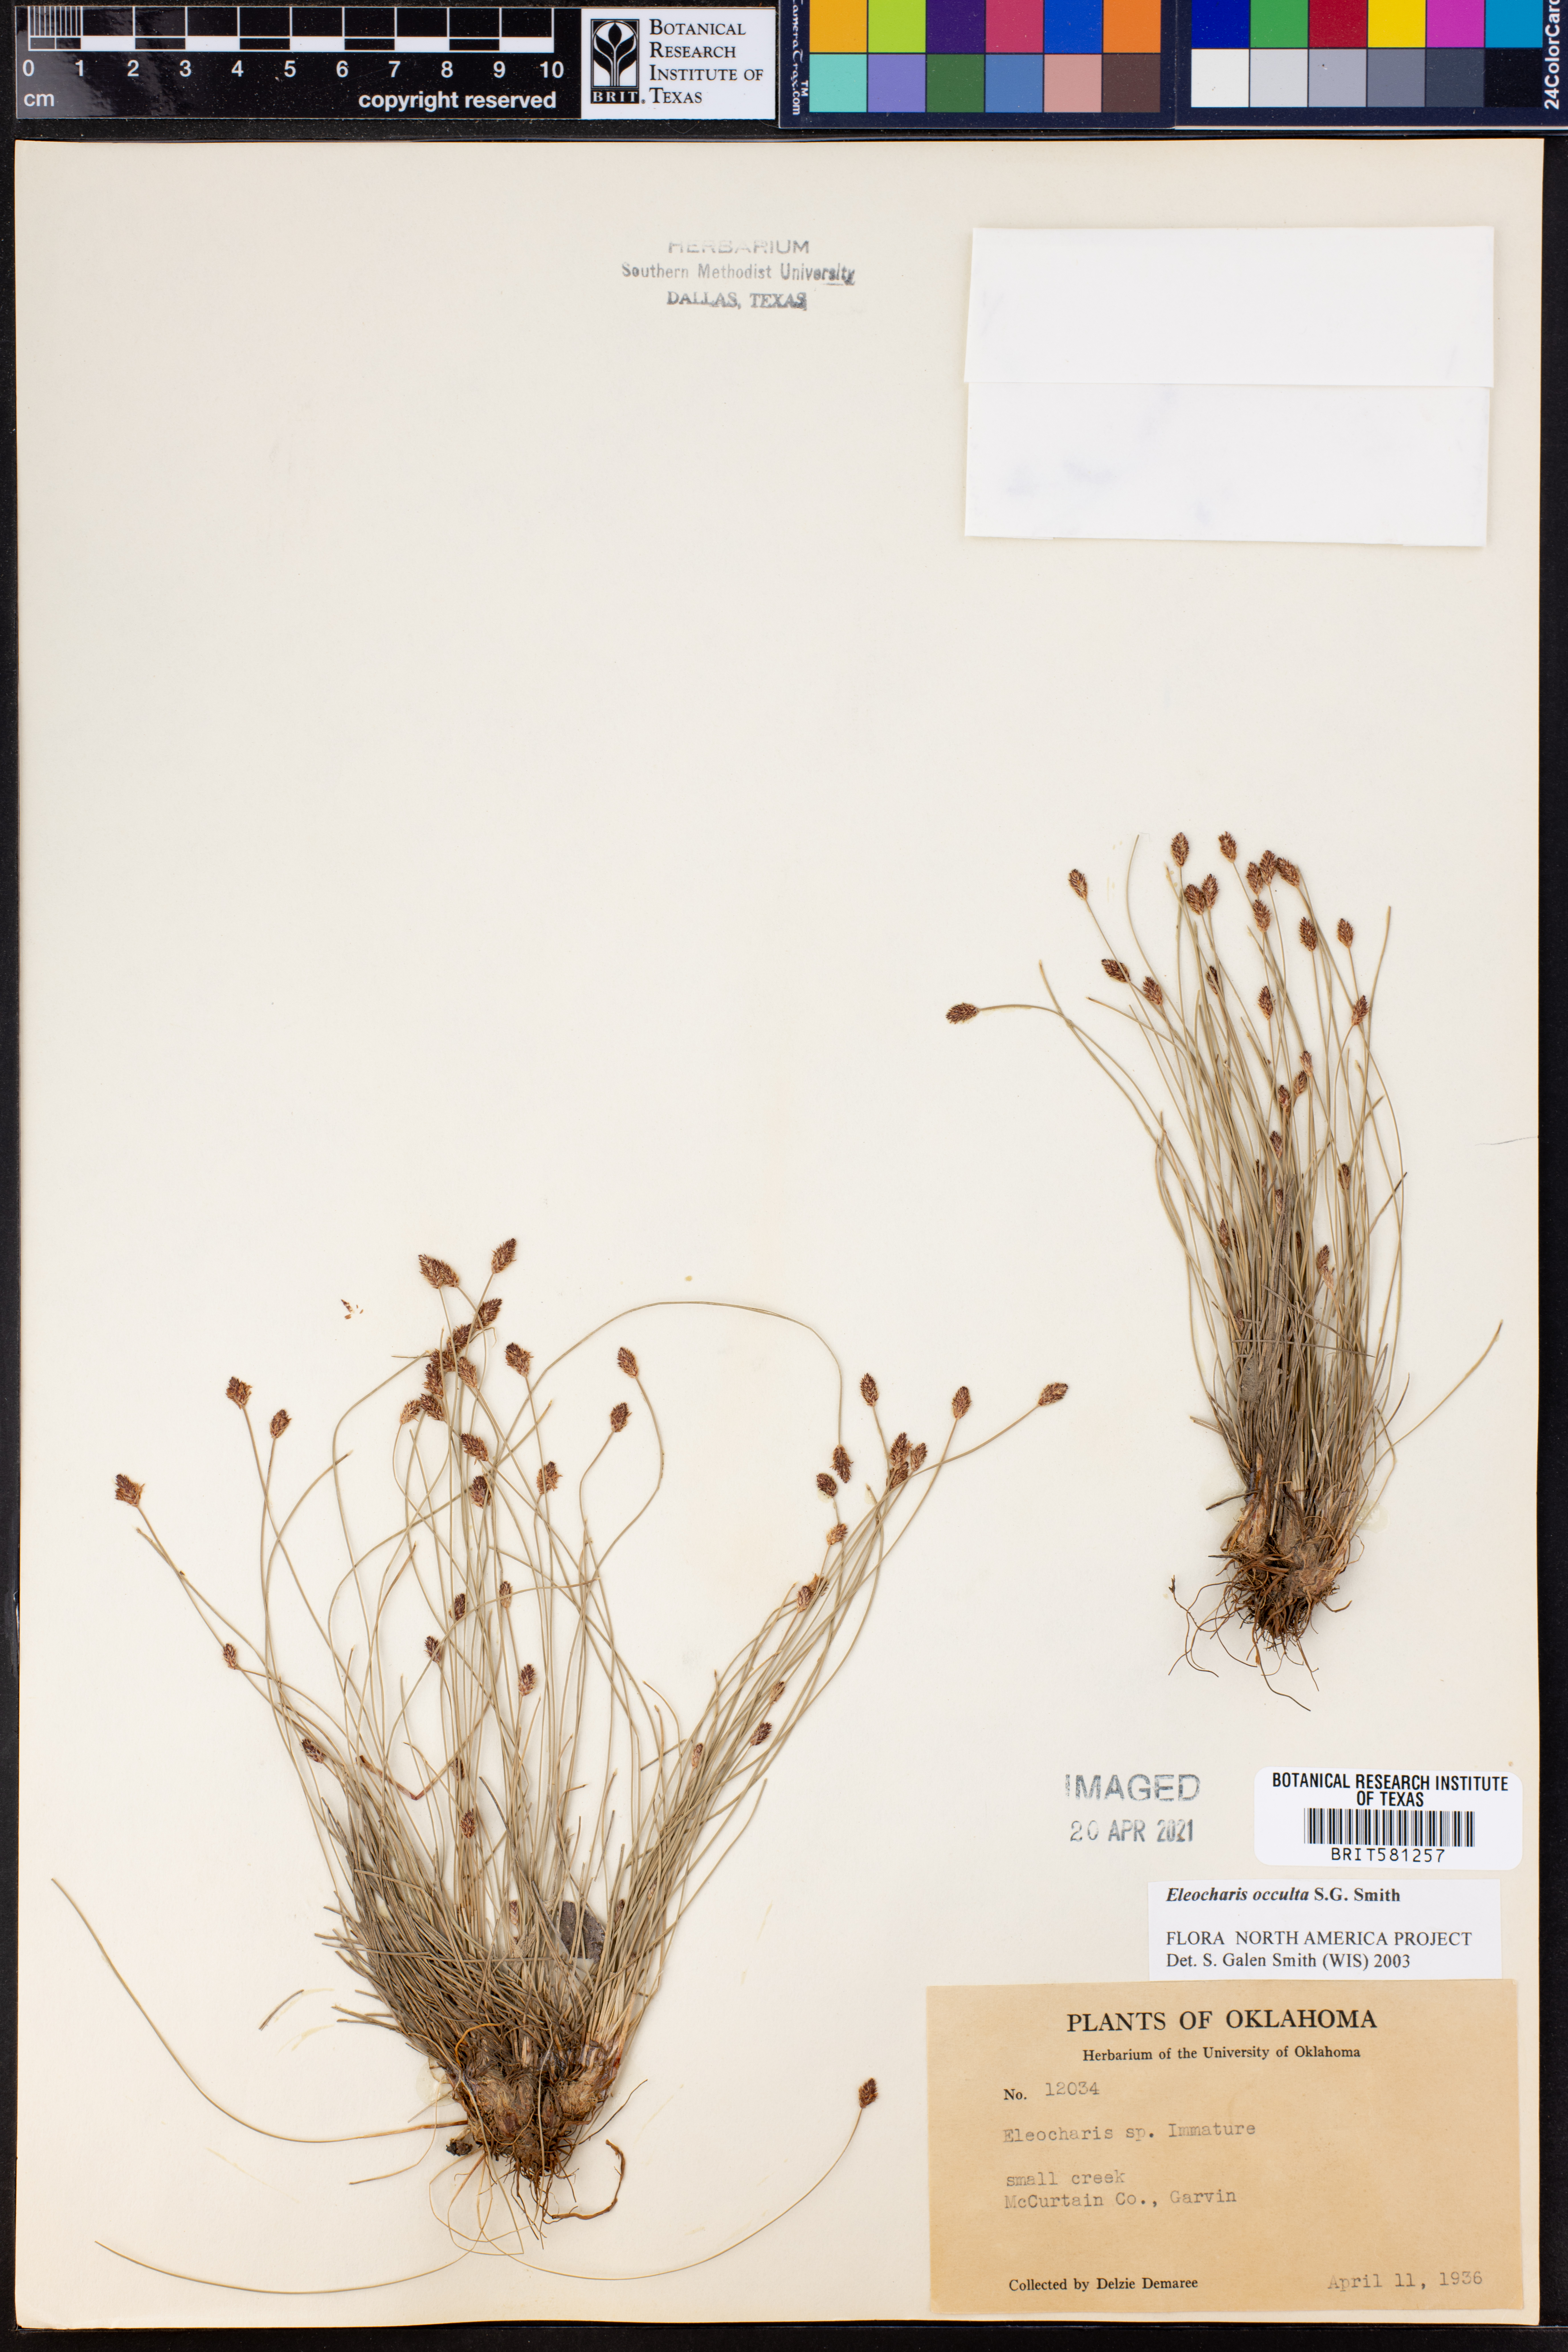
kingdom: Plantae
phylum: Tracheophyta
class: Liliopsida
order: Poales
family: Cyperaceae
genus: Eleocharis
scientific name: Eleocharis occulta
